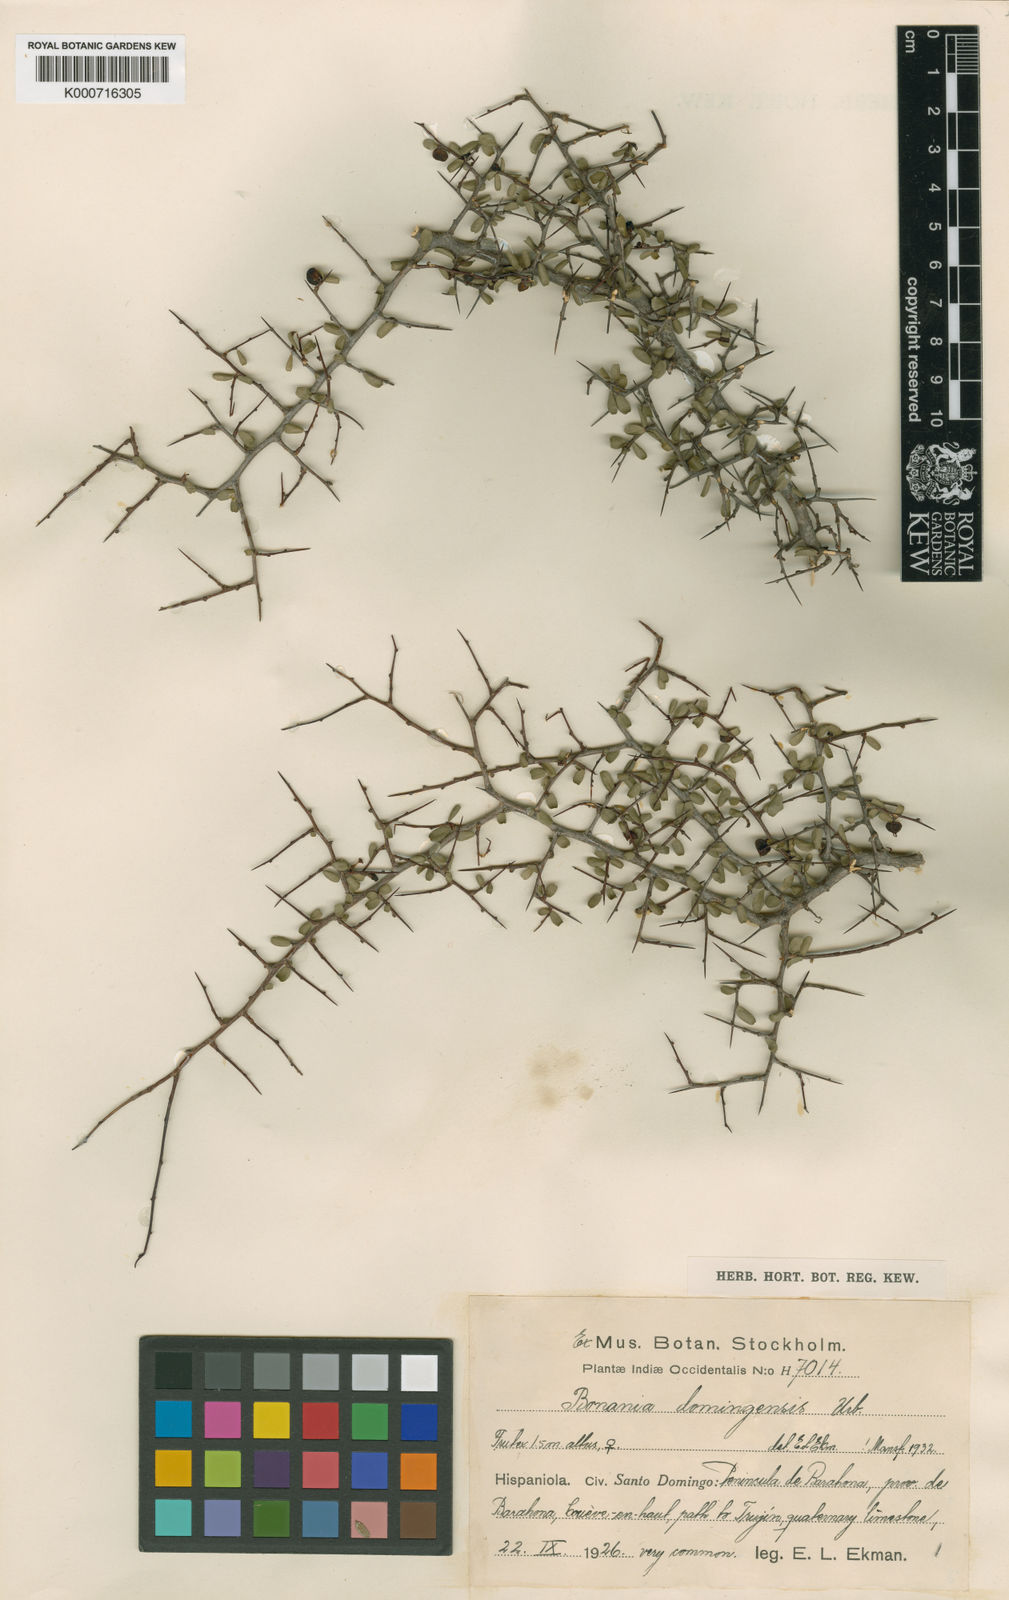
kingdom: Plantae
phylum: Tracheophyta
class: Magnoliopsida
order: Malpighiales
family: Euphorbiaceae
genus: Bonania
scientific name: Bonania domingensis
